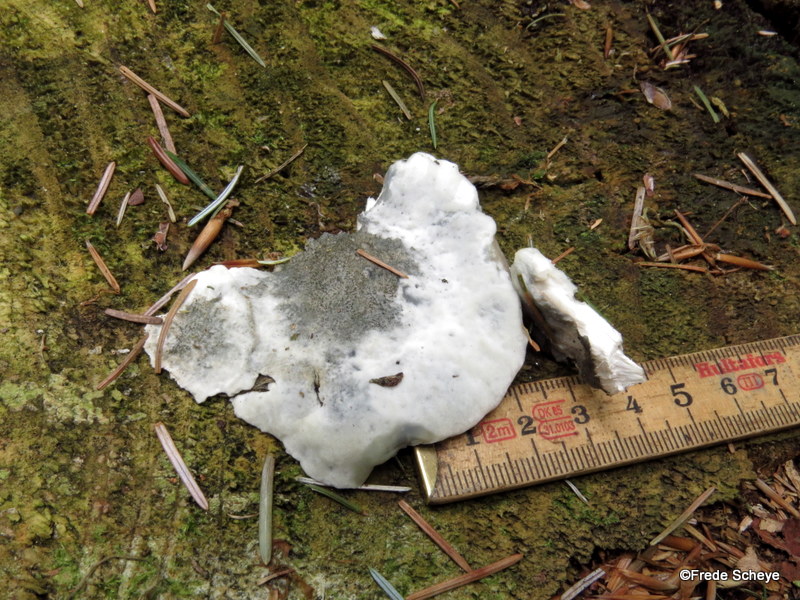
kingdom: Fungi
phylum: Basidiomycota
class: Agaricomycetes
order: Polyporales
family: Polyporaceae
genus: Cyanosporus
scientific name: Cyanosporus caesius
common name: blålig kødporesvamp
